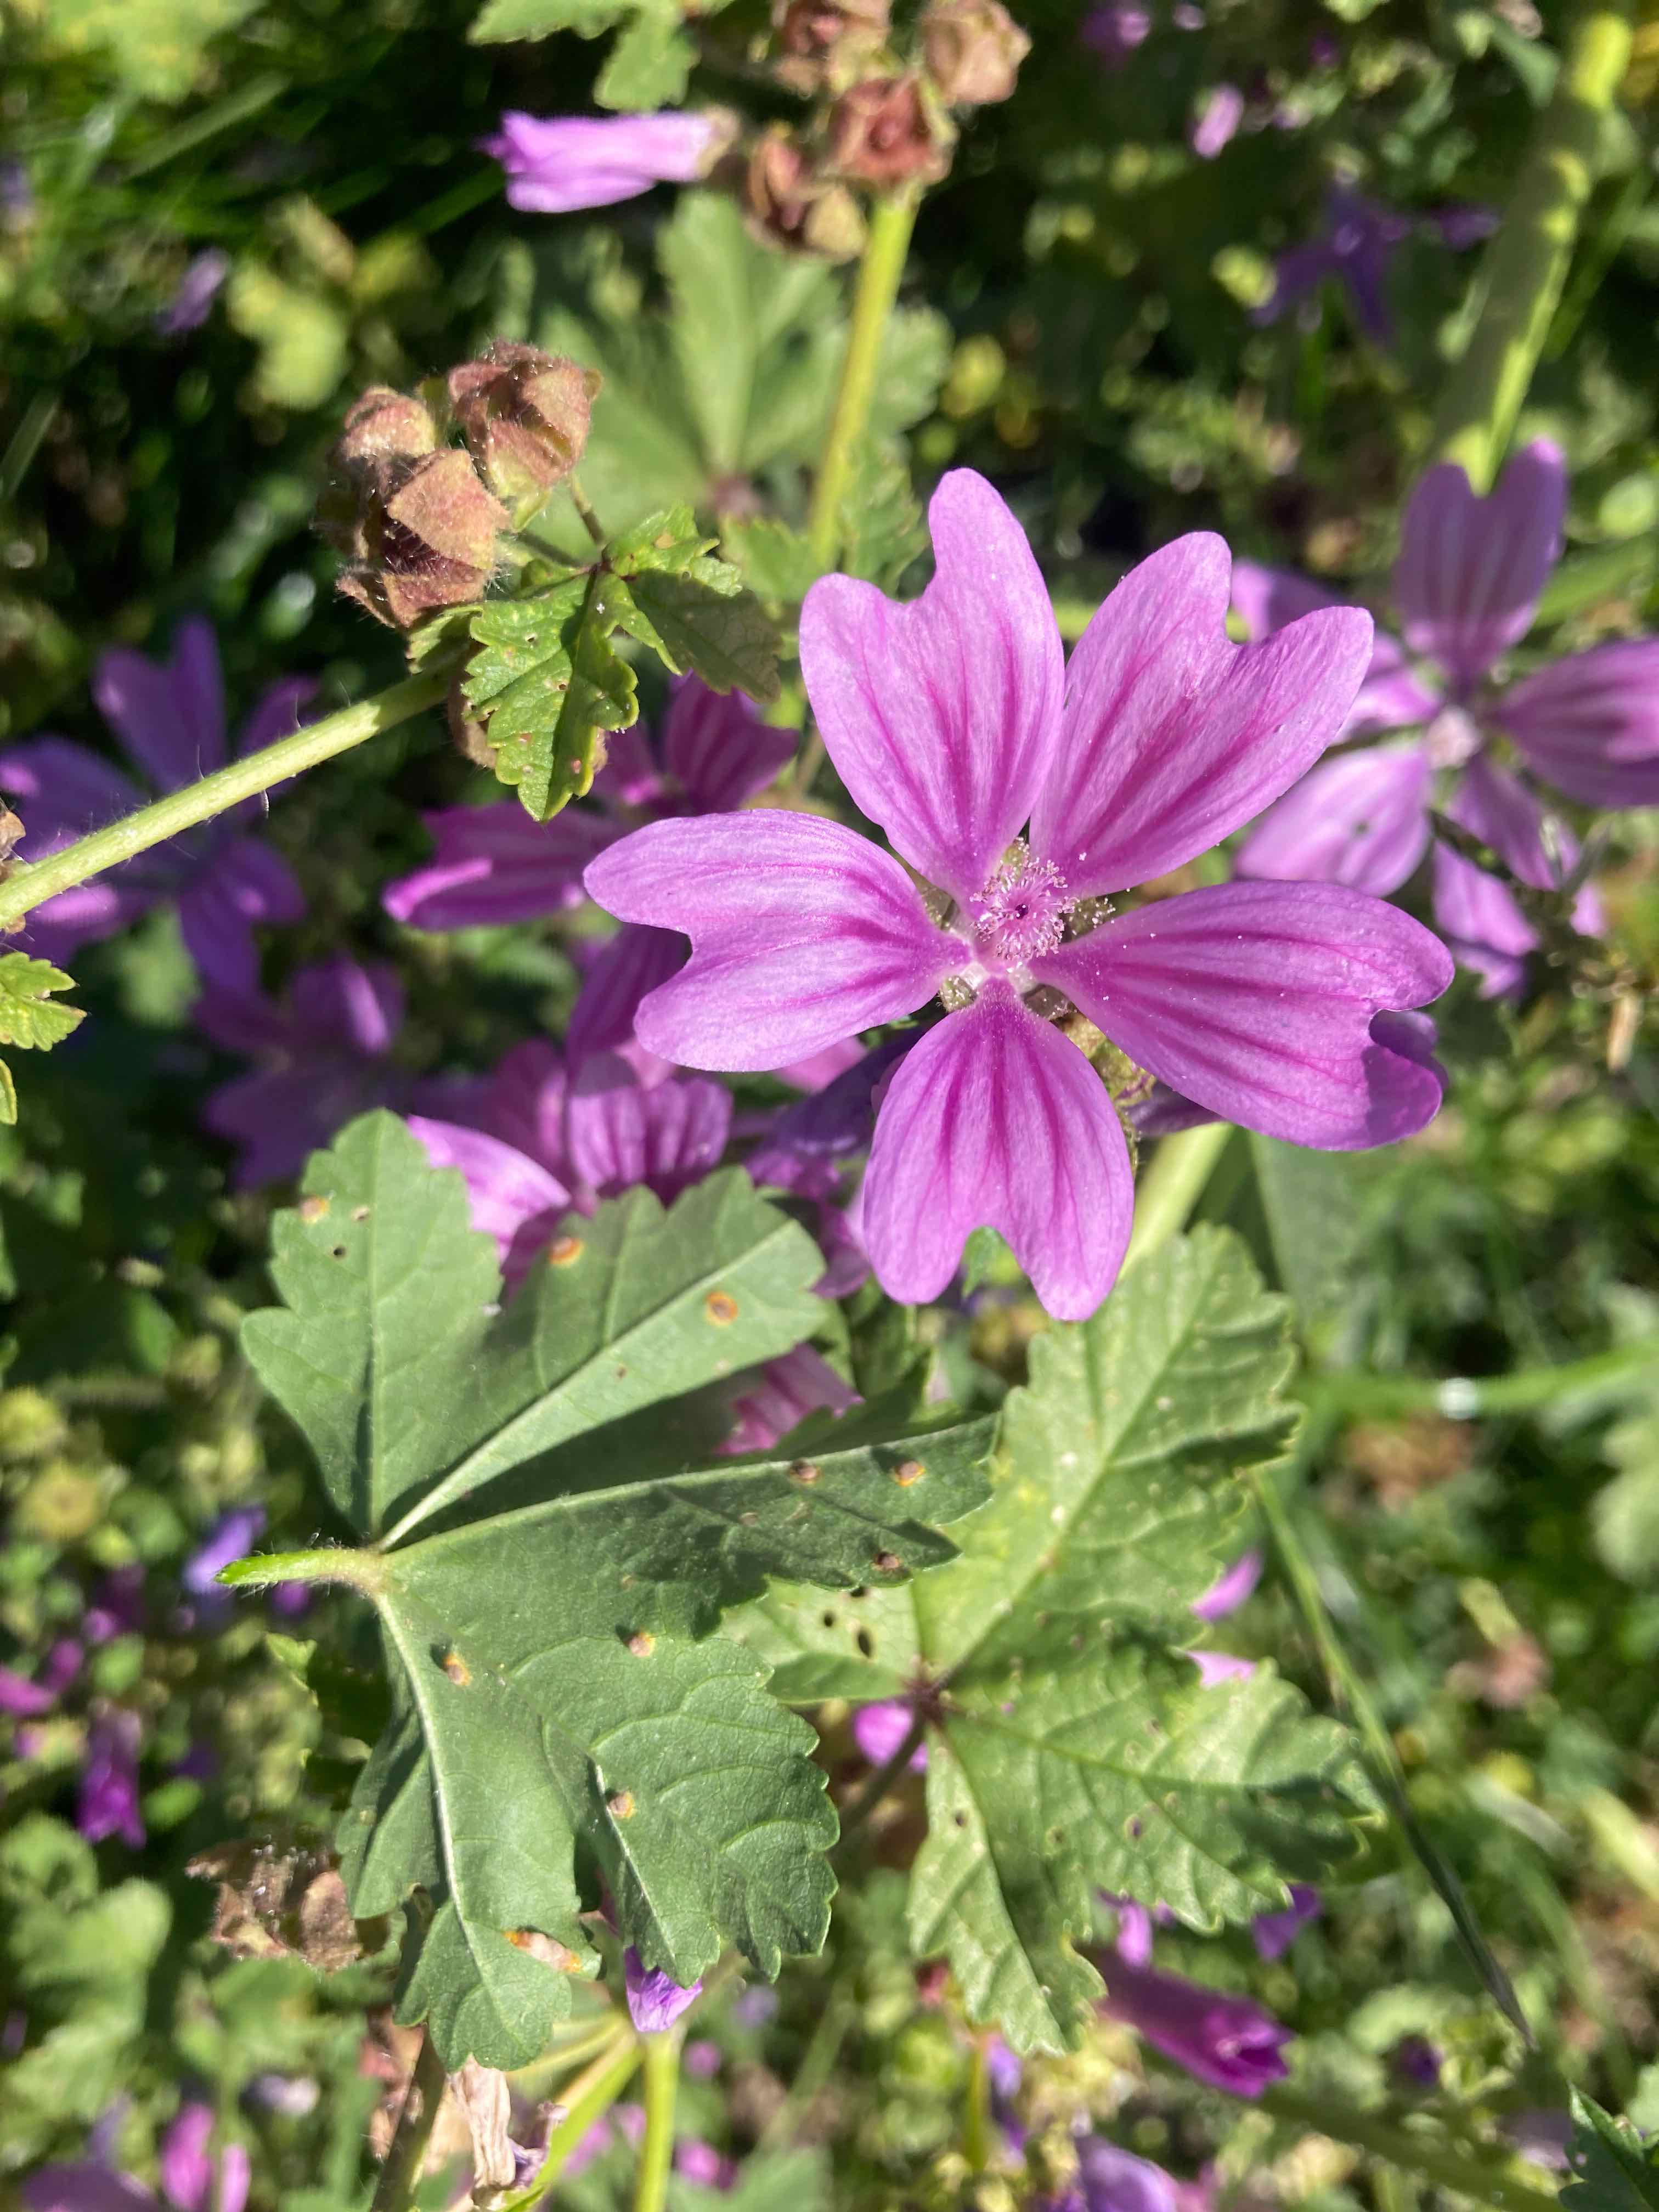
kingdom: Fungi
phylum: Basidiomycota
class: Pucciniomycetes
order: Pucciniales
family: Pucciniaceae
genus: Puccinia
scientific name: Puccinia malvacearum
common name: stokrose-tvecellerust
